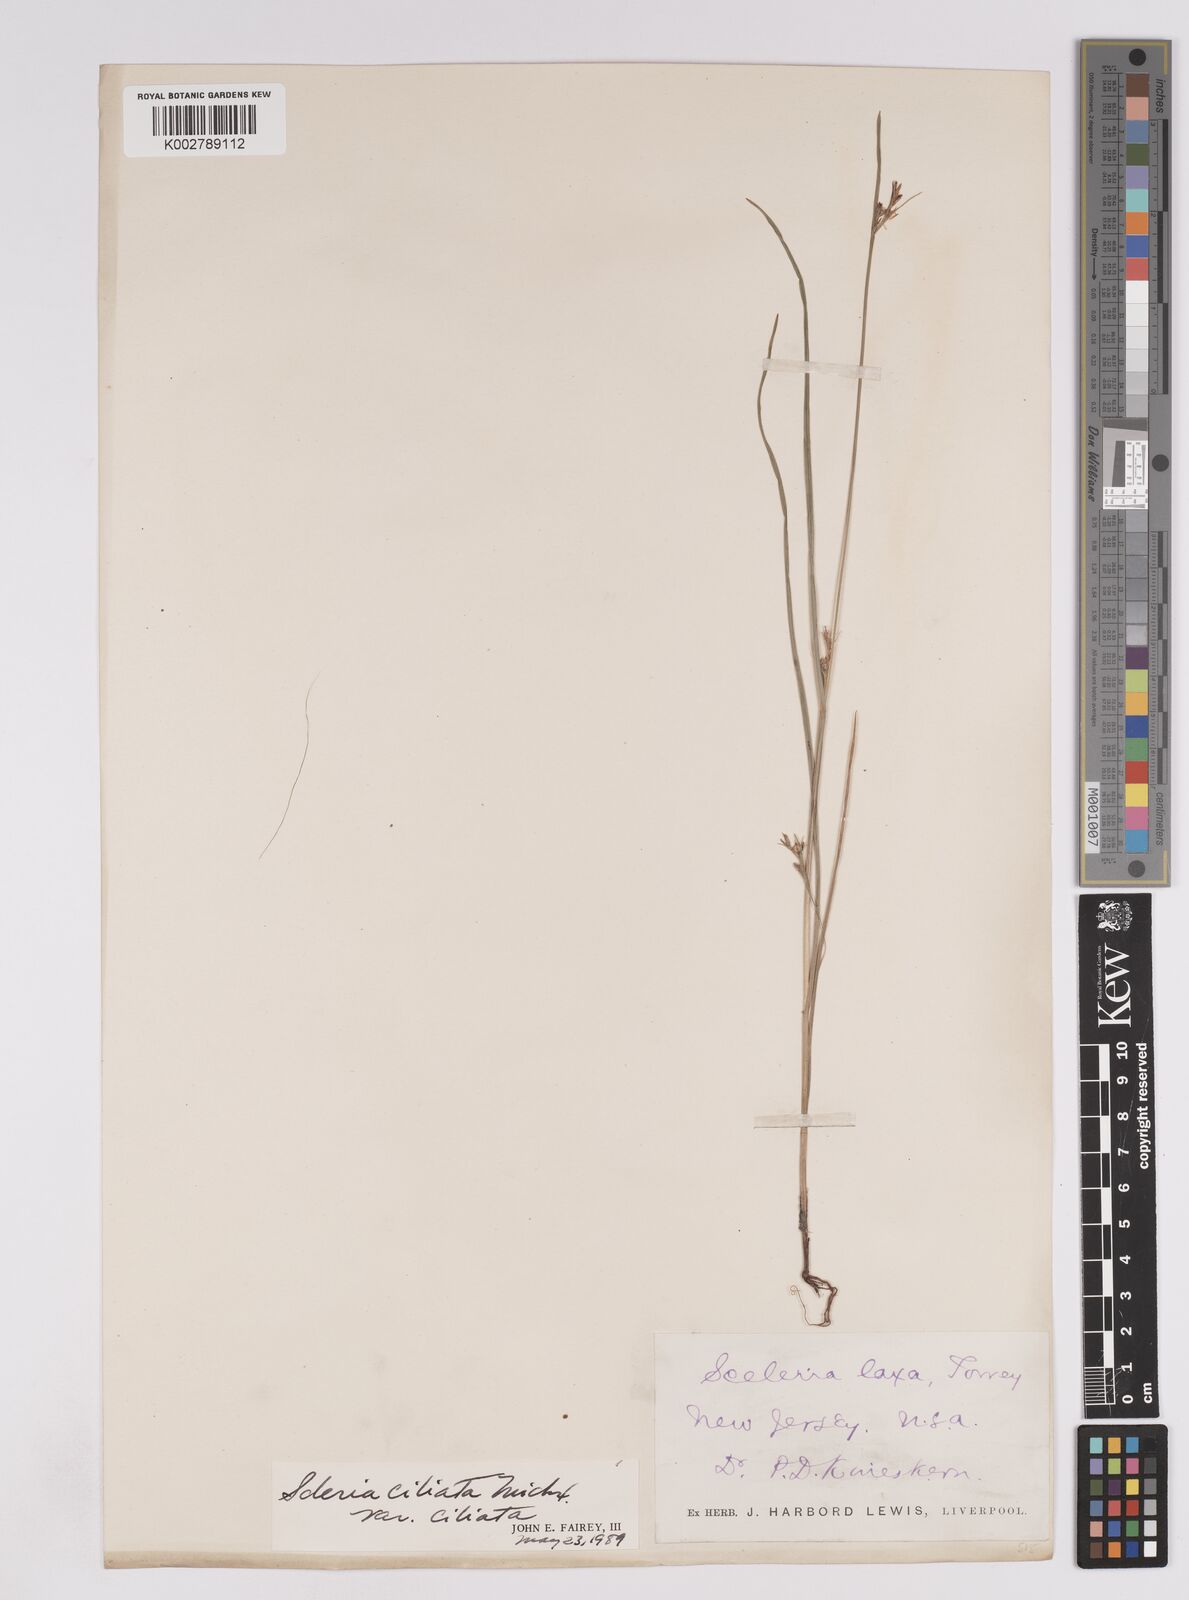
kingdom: Plantae
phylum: Tracheophyta
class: Liliopsida
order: Poales
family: Cyperaceae
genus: Scleria
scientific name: Scleria ciliata
